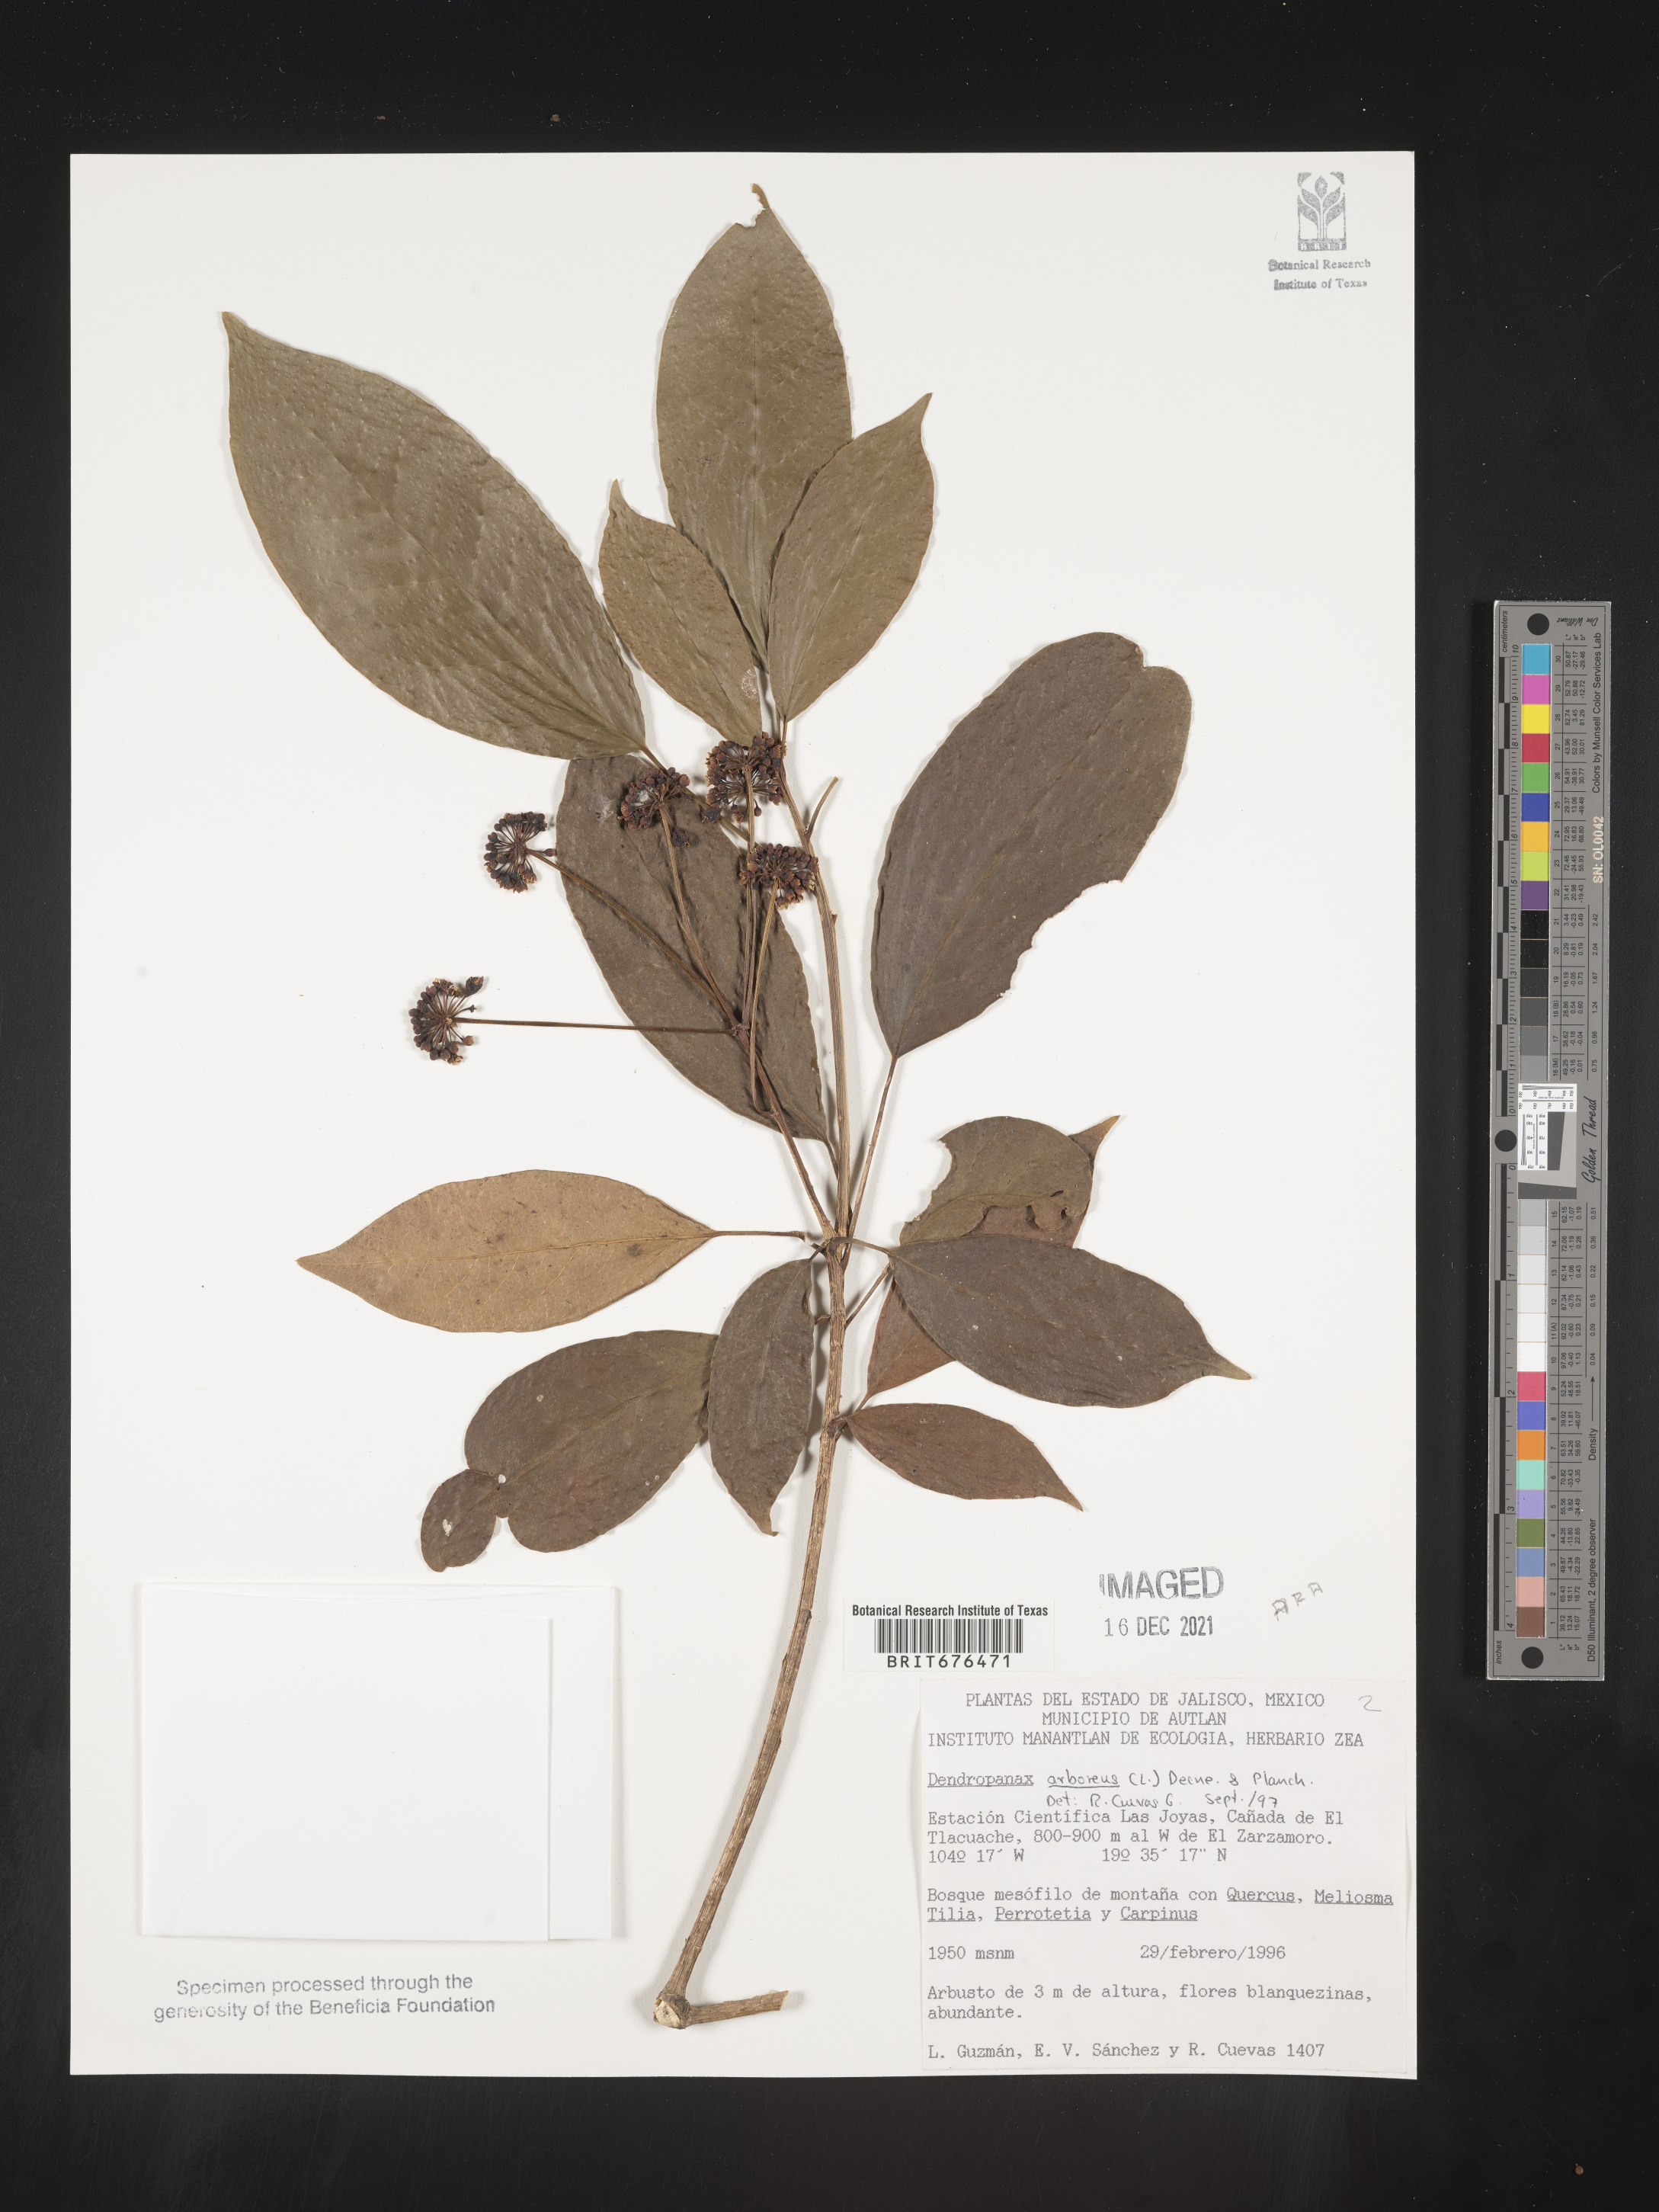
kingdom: Plantae
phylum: Tracheophyta
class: Magnoliopsida
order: Apiales
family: Araliaceae
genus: Dendropanax
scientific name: Dendropanax
